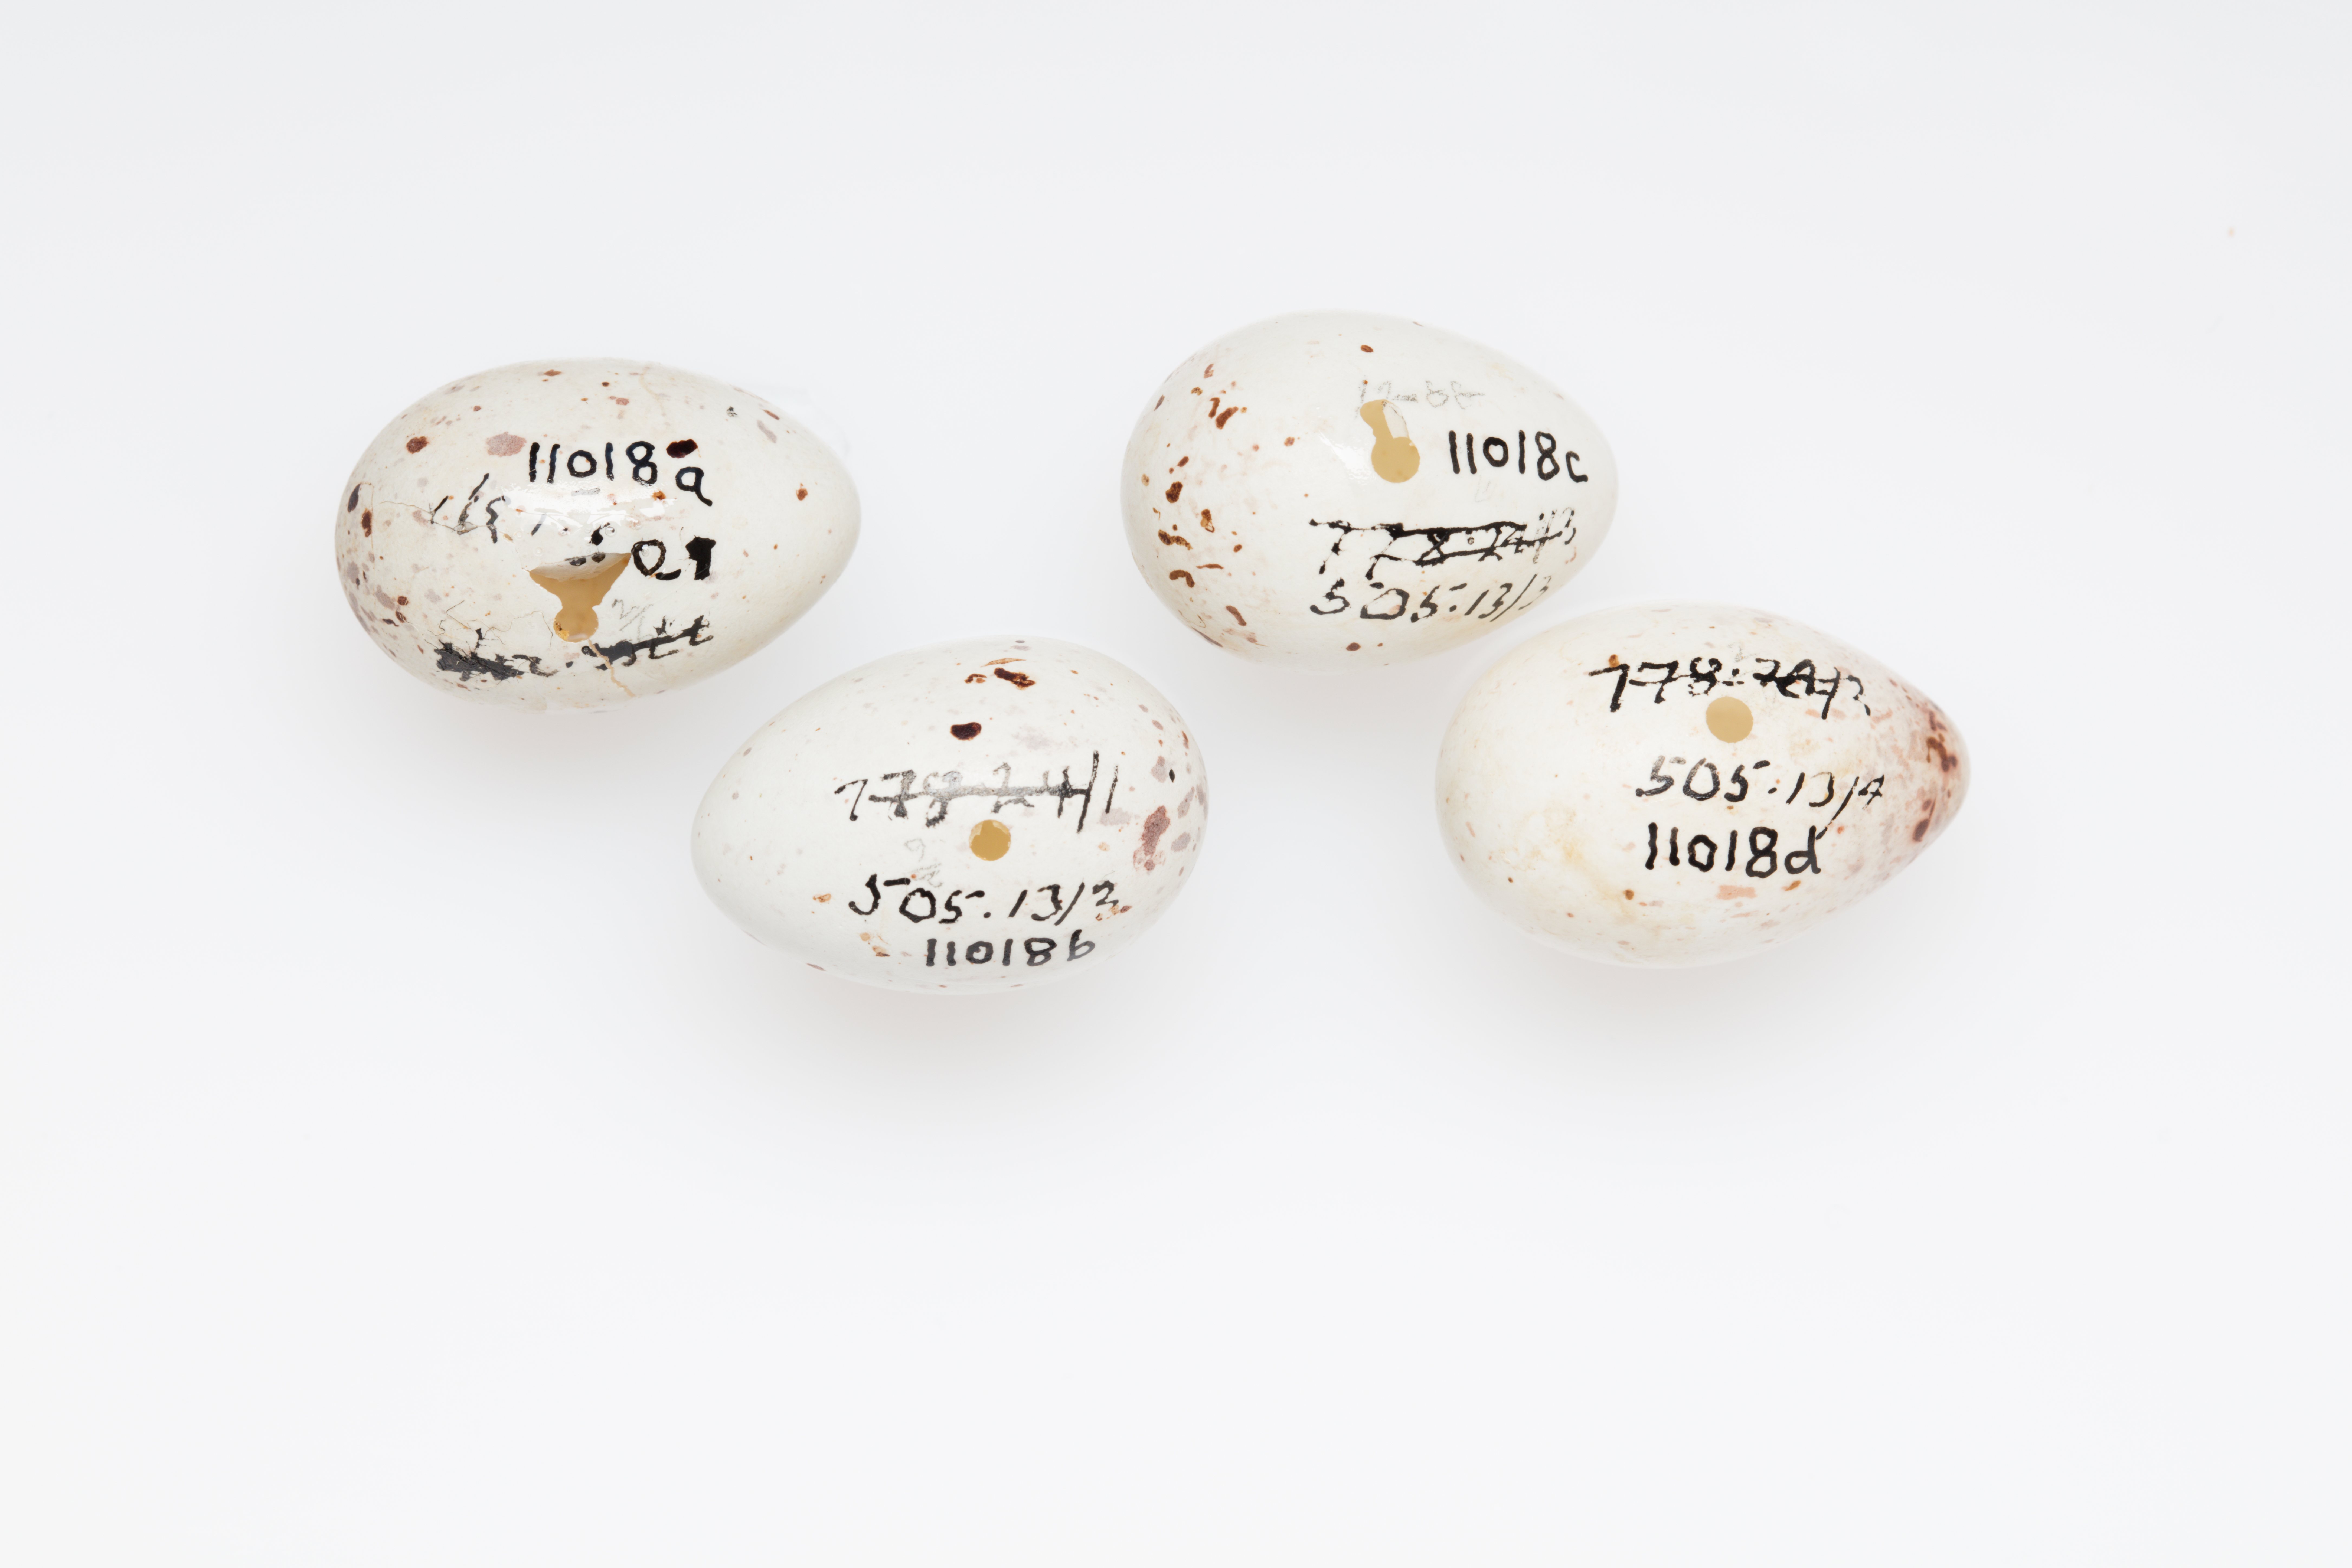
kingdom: Plantae
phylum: Tracheophyta
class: Liliopsida
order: Poales
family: Poaceae
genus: Chloris
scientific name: Chloris chloris
